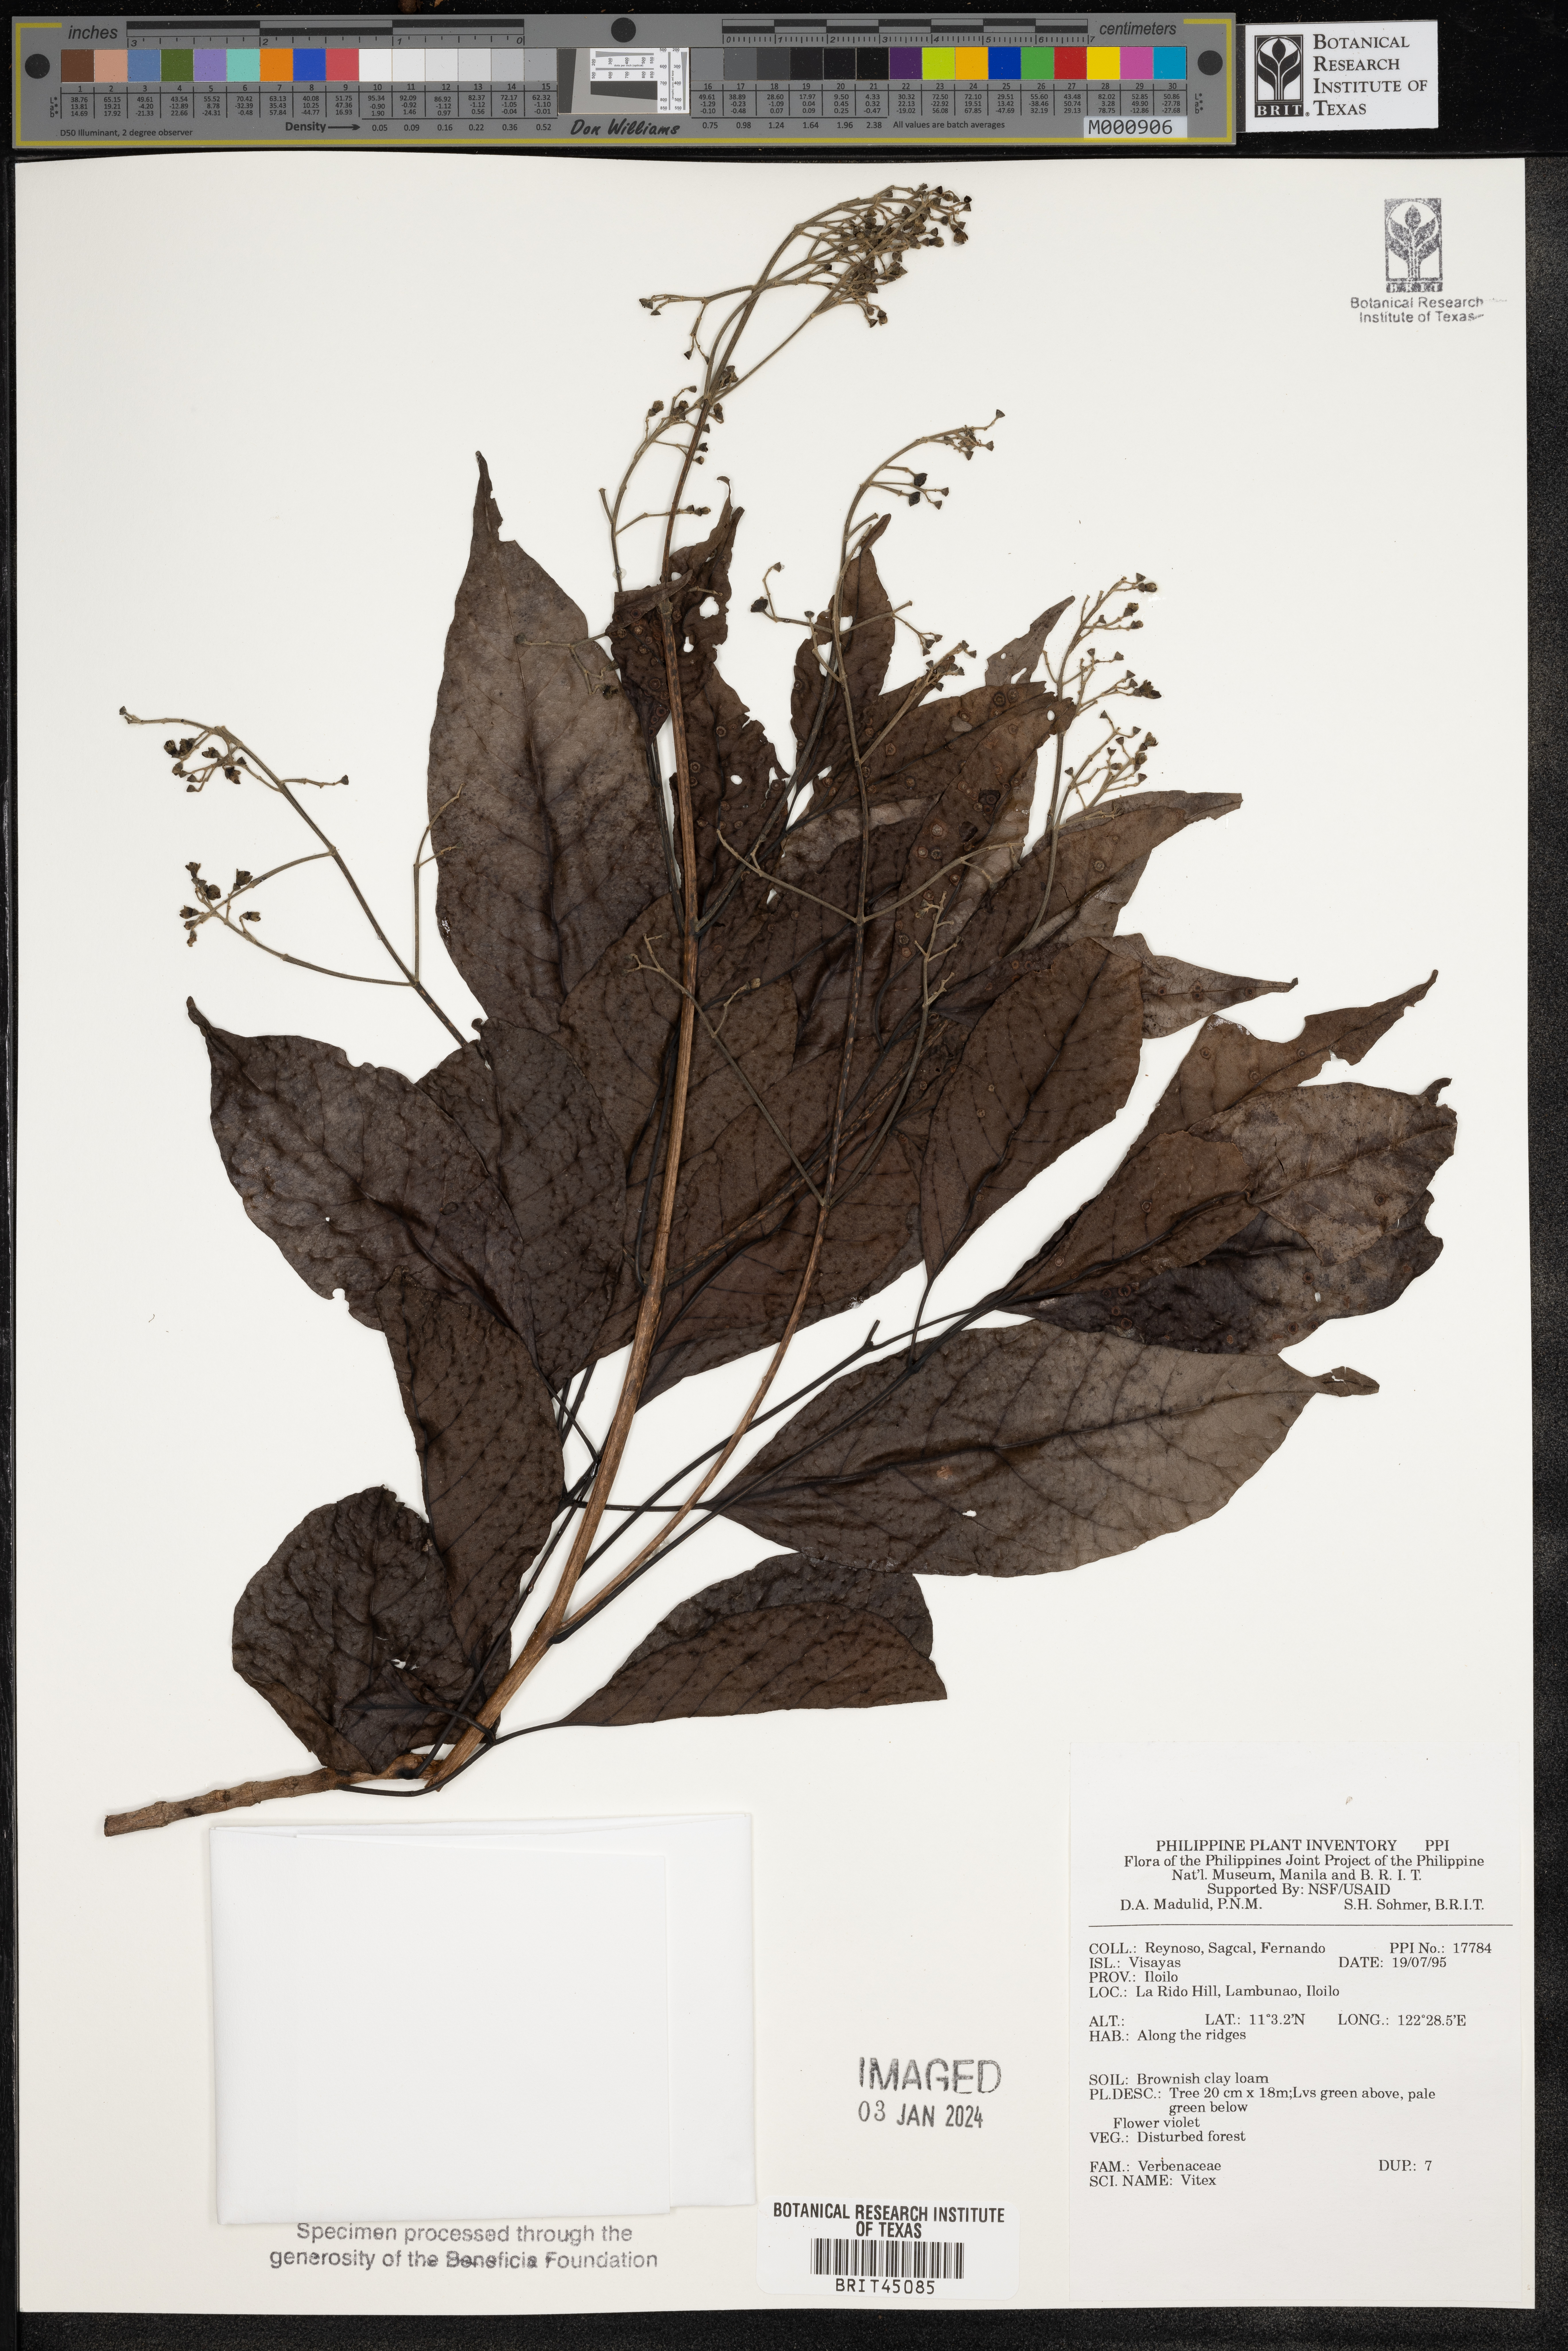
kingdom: Plantae
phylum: Tracheophyta
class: Magnoliopsida
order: Lamiales
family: Lamiaceae
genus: Vitex
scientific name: Vitex
